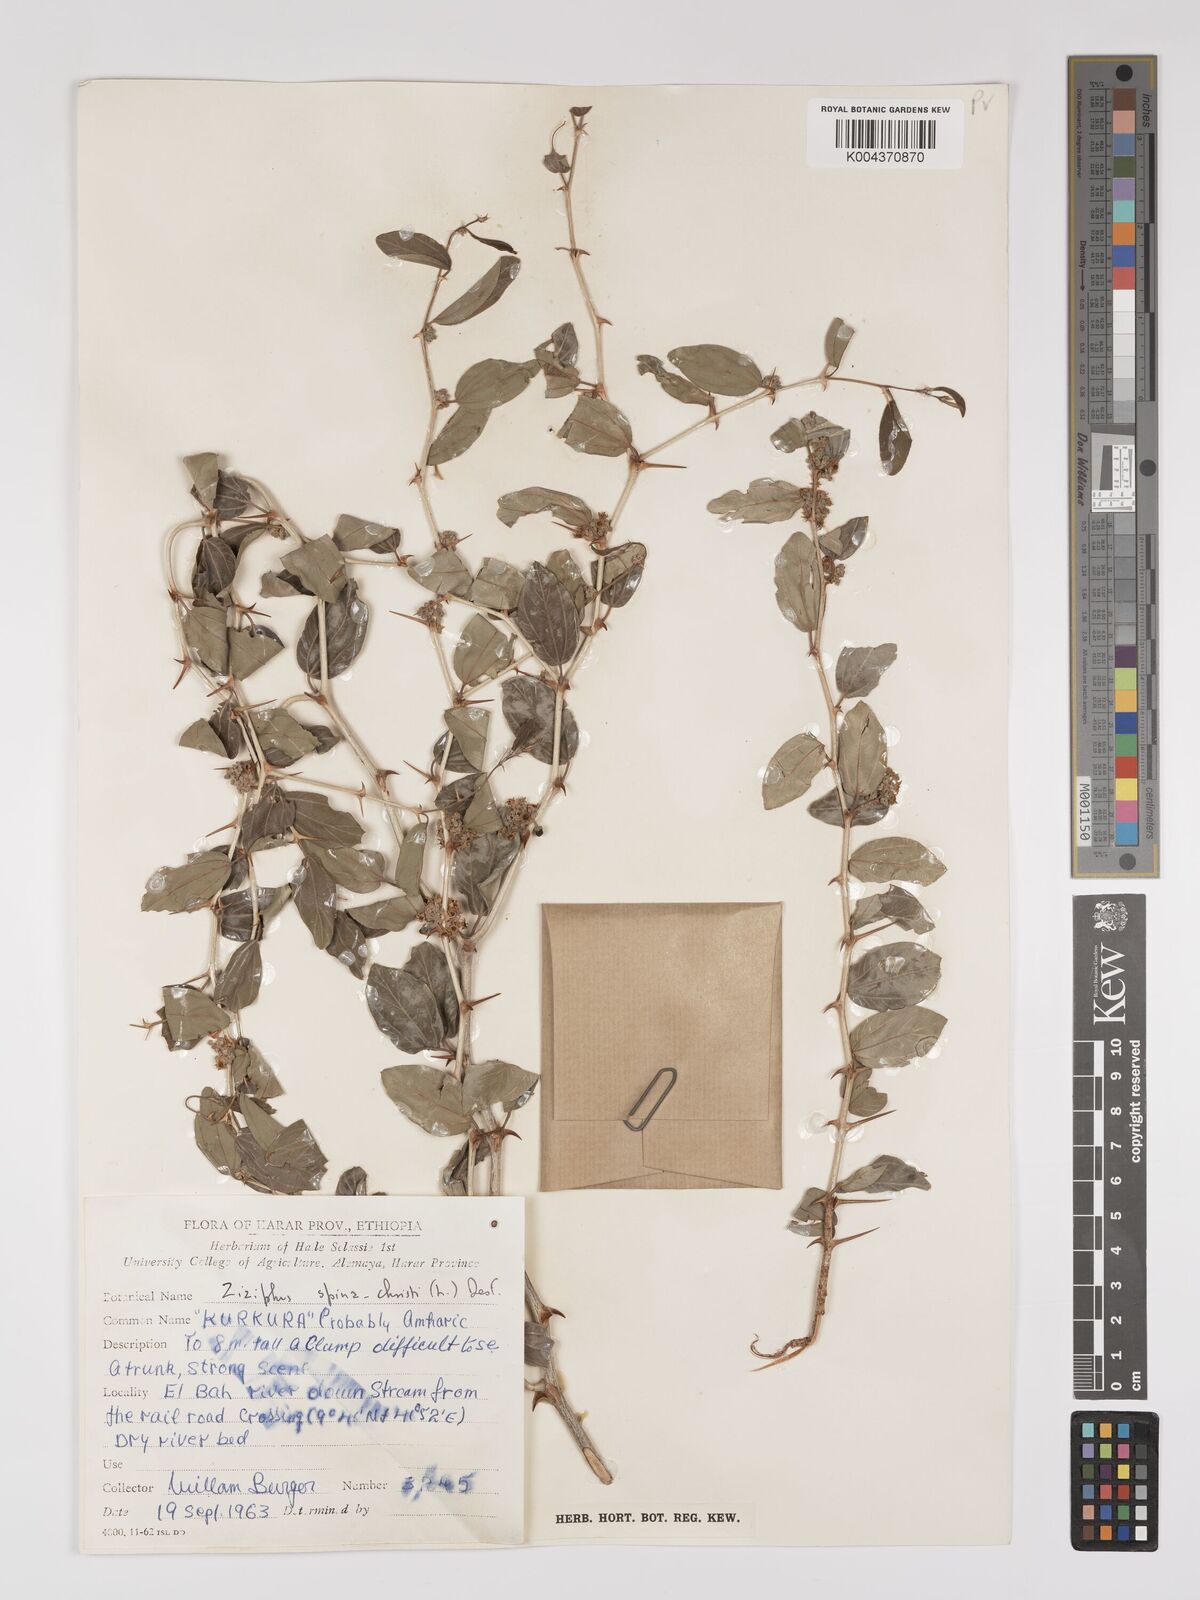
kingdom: Plantae
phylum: Tracheophyta
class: Magnoliopsida
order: Rosales
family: Rhamnaceae
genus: Ziziphus
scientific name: Ziziphus spina-christi
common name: Syrian christ-thorn
